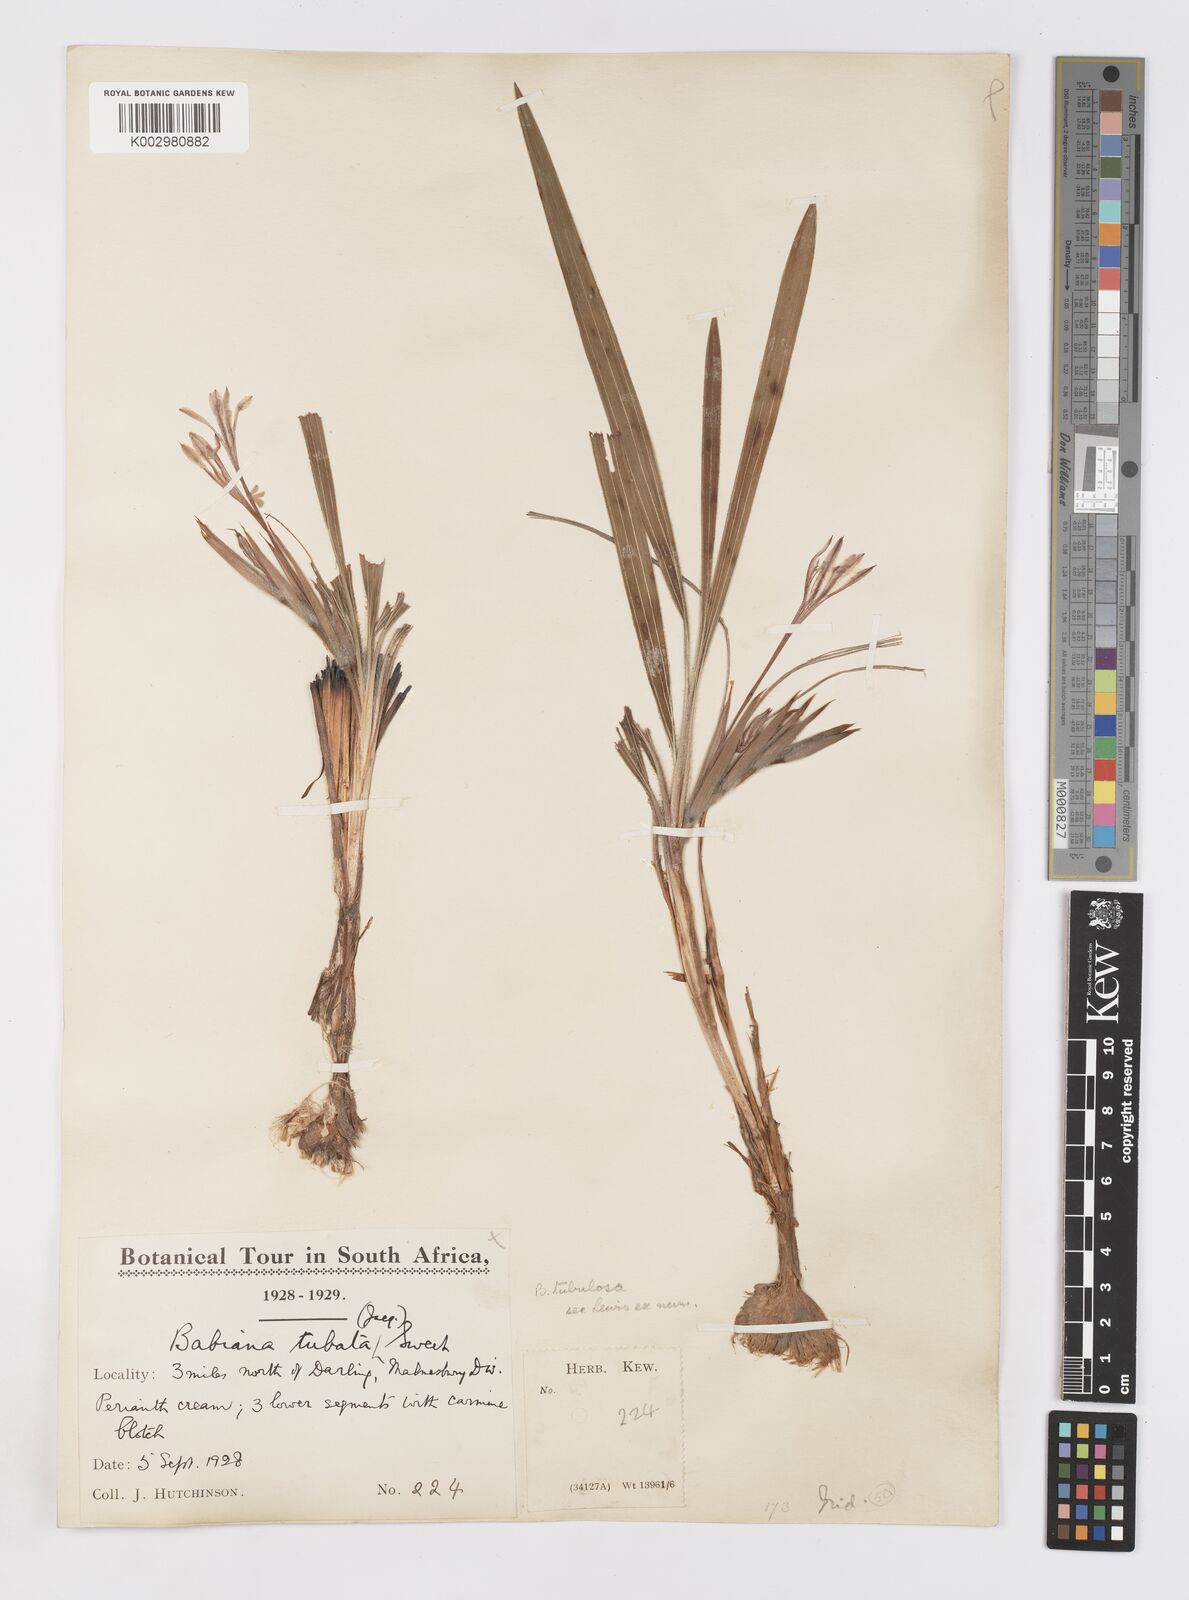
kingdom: Plantae
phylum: Tracheophyta
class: Liliopsida
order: Asparagales
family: Iridaceae
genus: Babiana
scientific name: Babiana tubulosa
